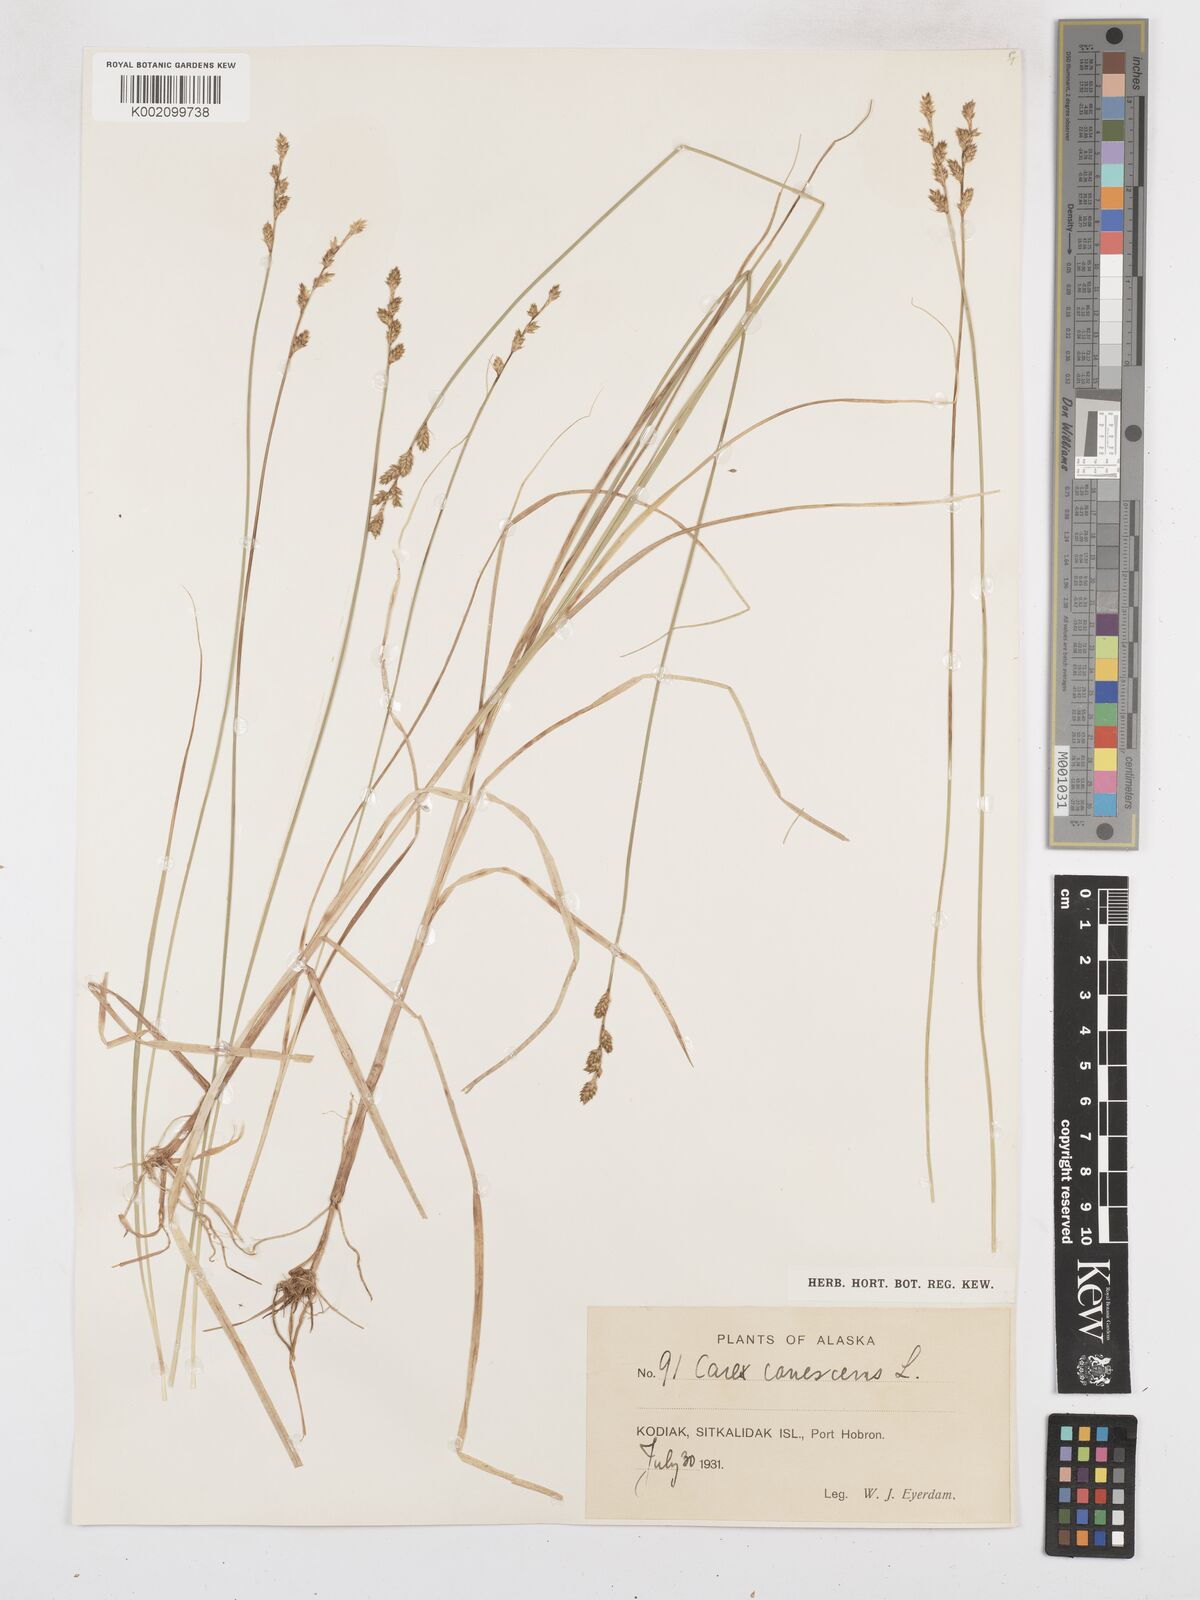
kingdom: Plantae
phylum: Tracheophyta
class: Liliopsida
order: Poales
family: Cyperaceae
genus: Carex
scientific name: Carex curta
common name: White sedge
